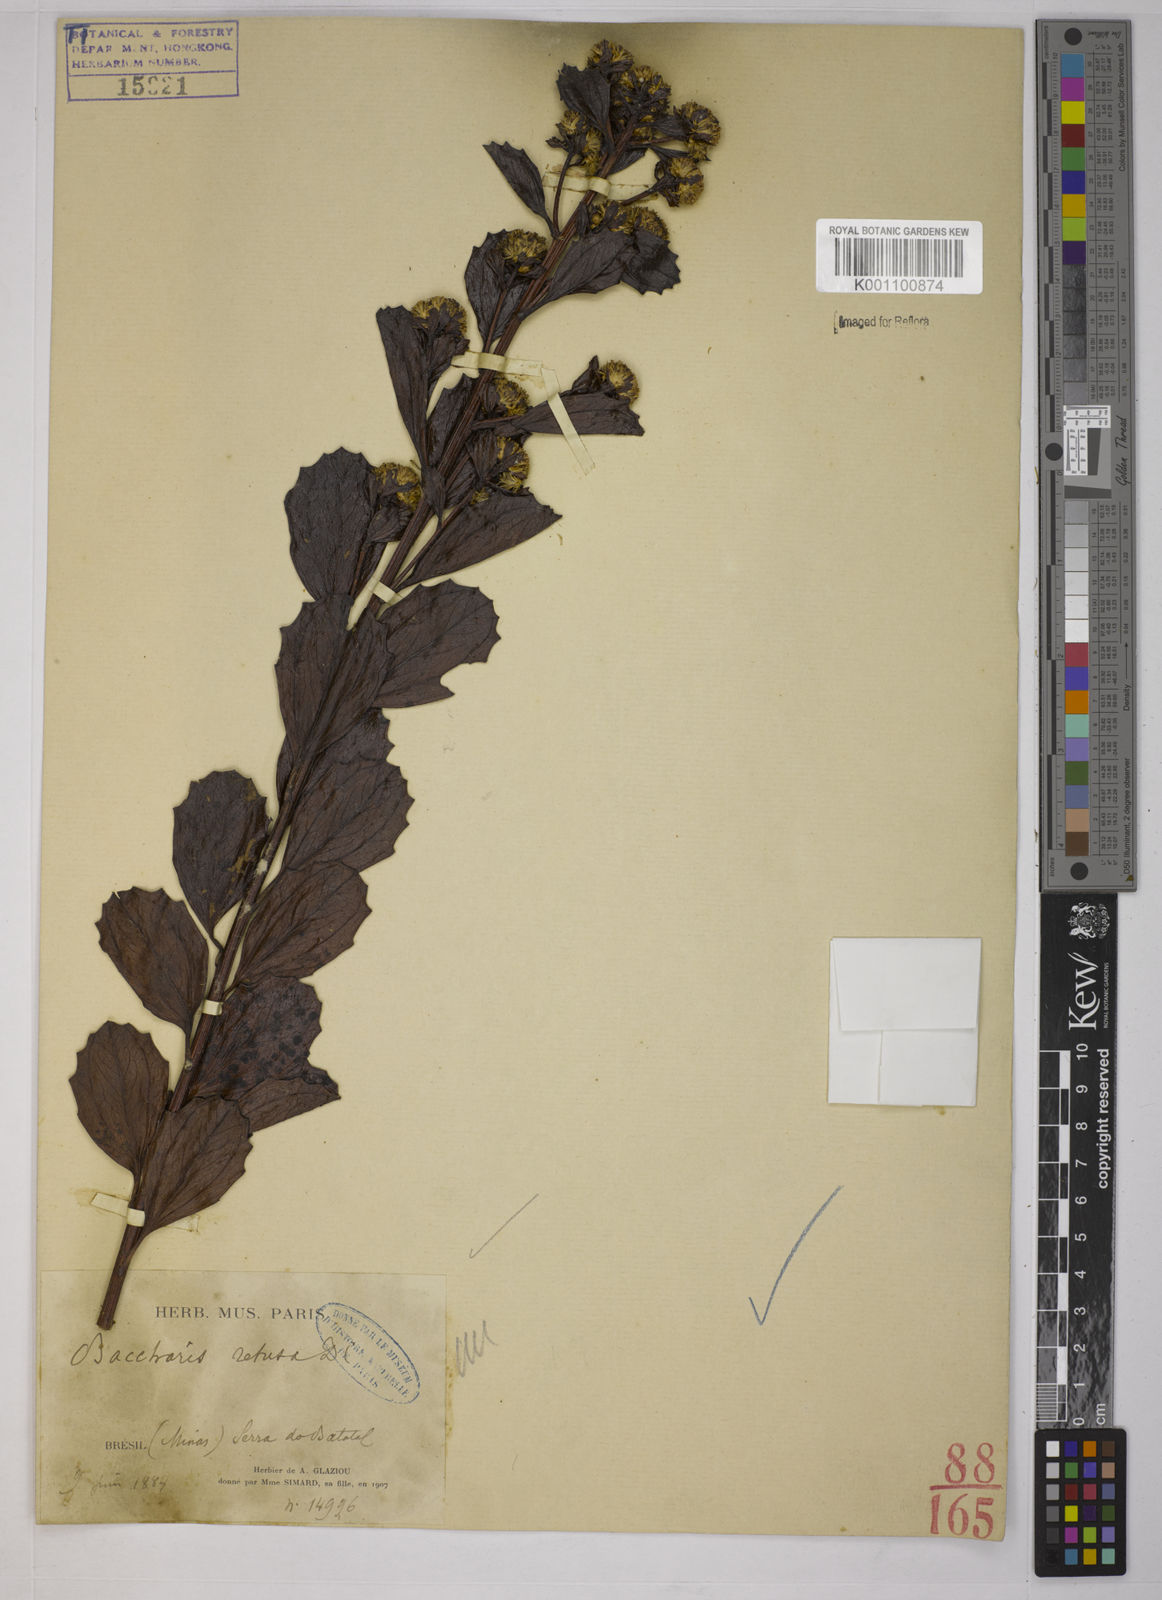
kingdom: Plantae
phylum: Tracheophyta
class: Magnoliopsida
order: Asterales
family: Asteraceae
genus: Baccharis
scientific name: Baccharis retusa
